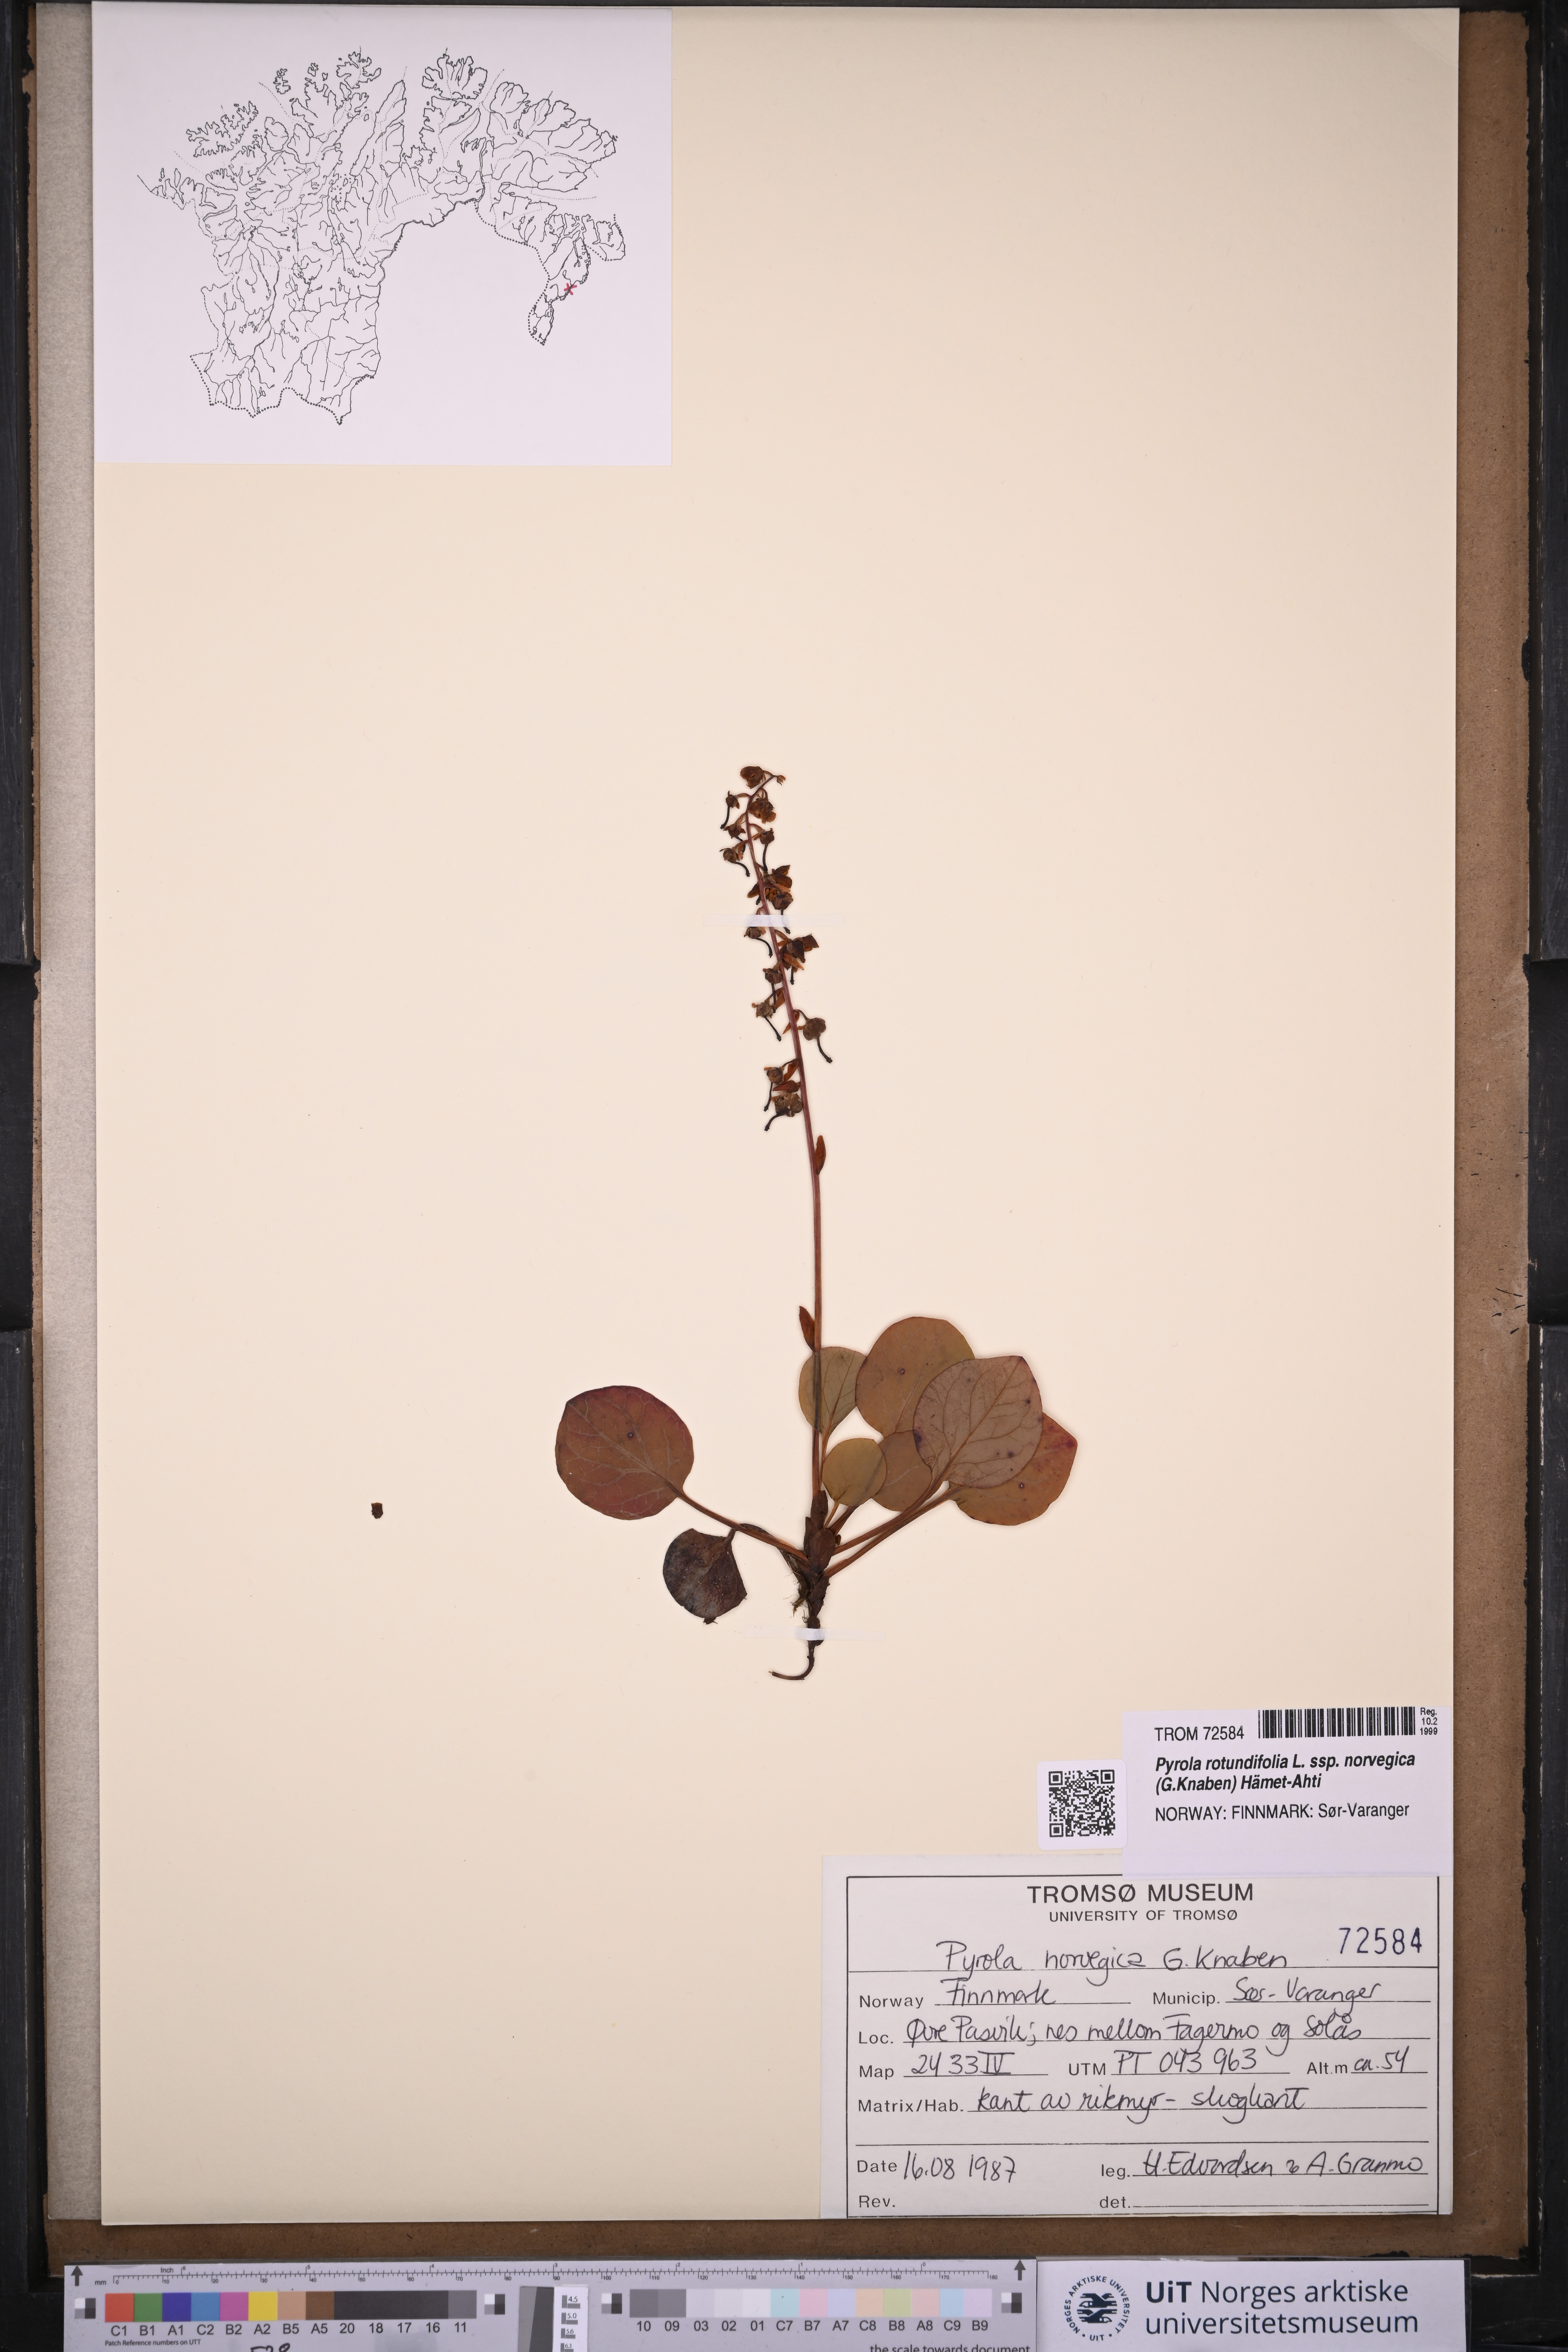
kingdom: Plantae
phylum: Tracheophyta
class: Magnoliopsida
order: Ericales
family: Ericaceae
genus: Pyrola
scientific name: Pyrola rotundifolia
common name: Round-leaved wintergreen
